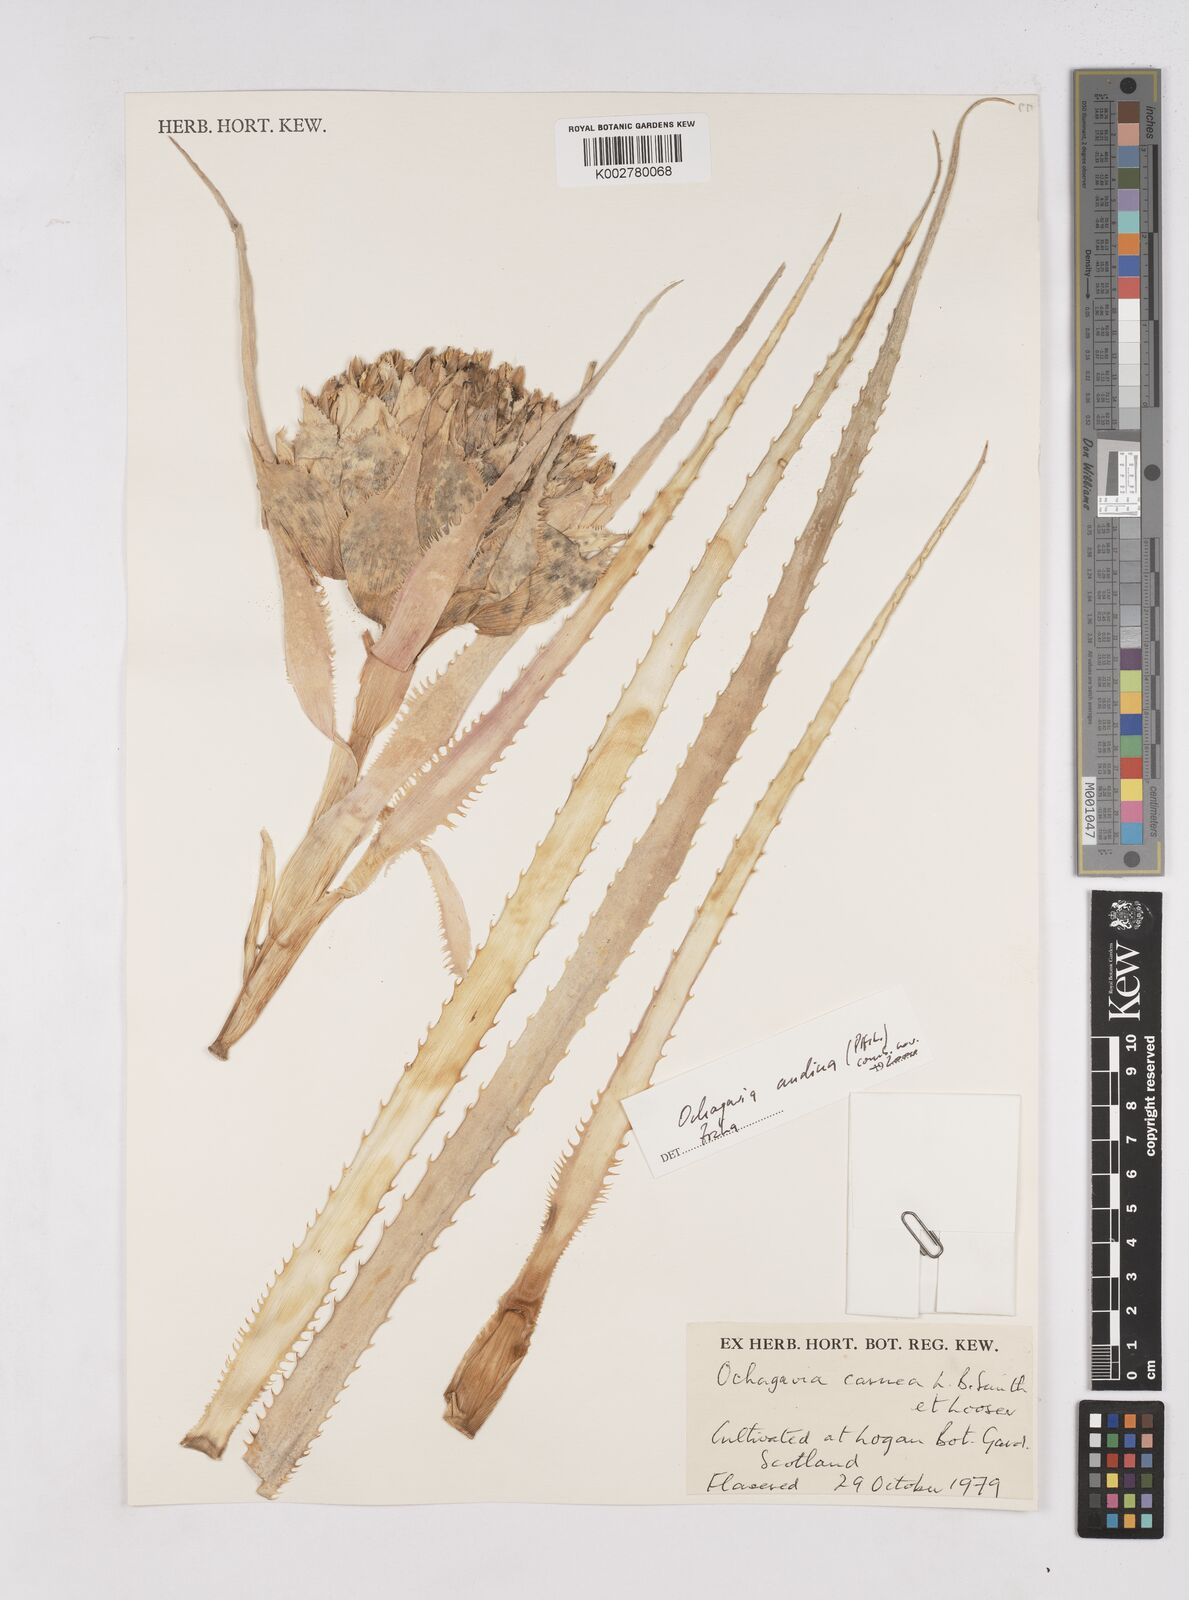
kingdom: Plantae
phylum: Tracheophyta
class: Liliopsida
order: Poales
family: Bromeliaceae
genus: Ochagavia
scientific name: Ochagavia carnea
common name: Tresco rhodostachys
